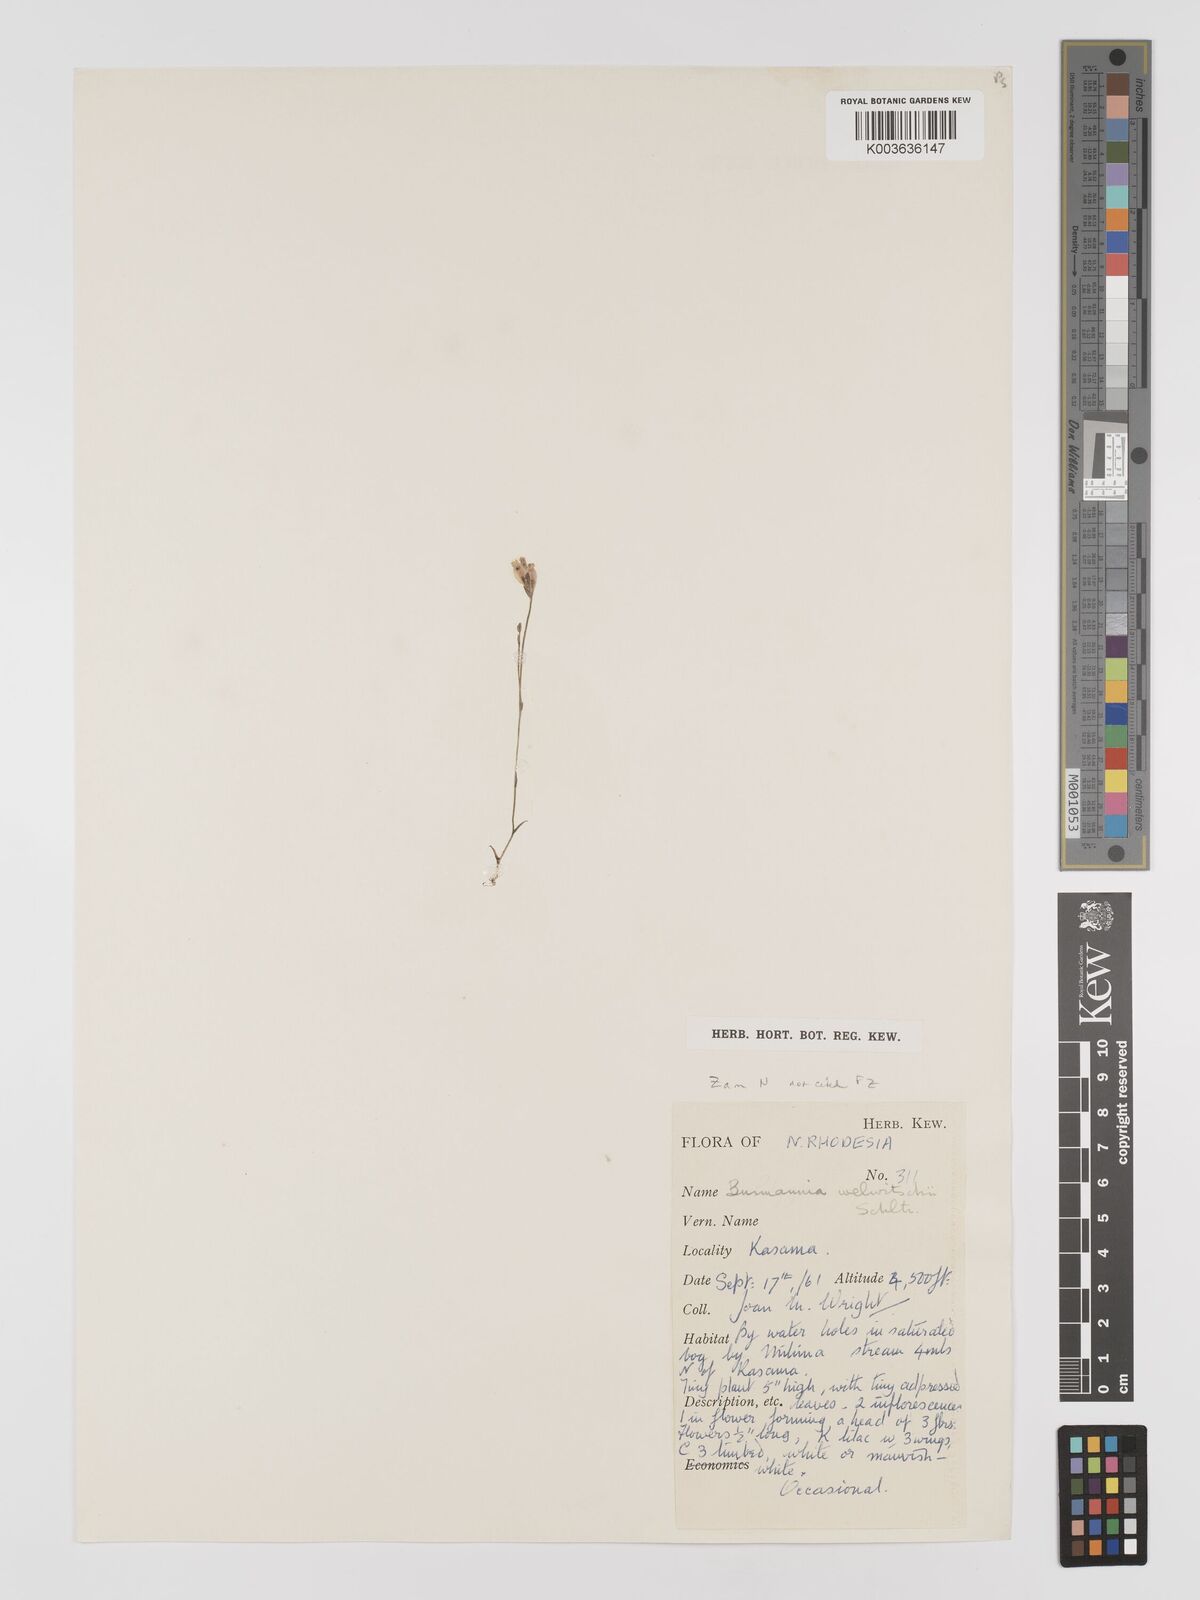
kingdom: Plantae
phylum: Tracheophyta
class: Liliopsida
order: Dioscoreales
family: Burmanniaceae
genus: Burmannia
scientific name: Burmannia madagascariensis
